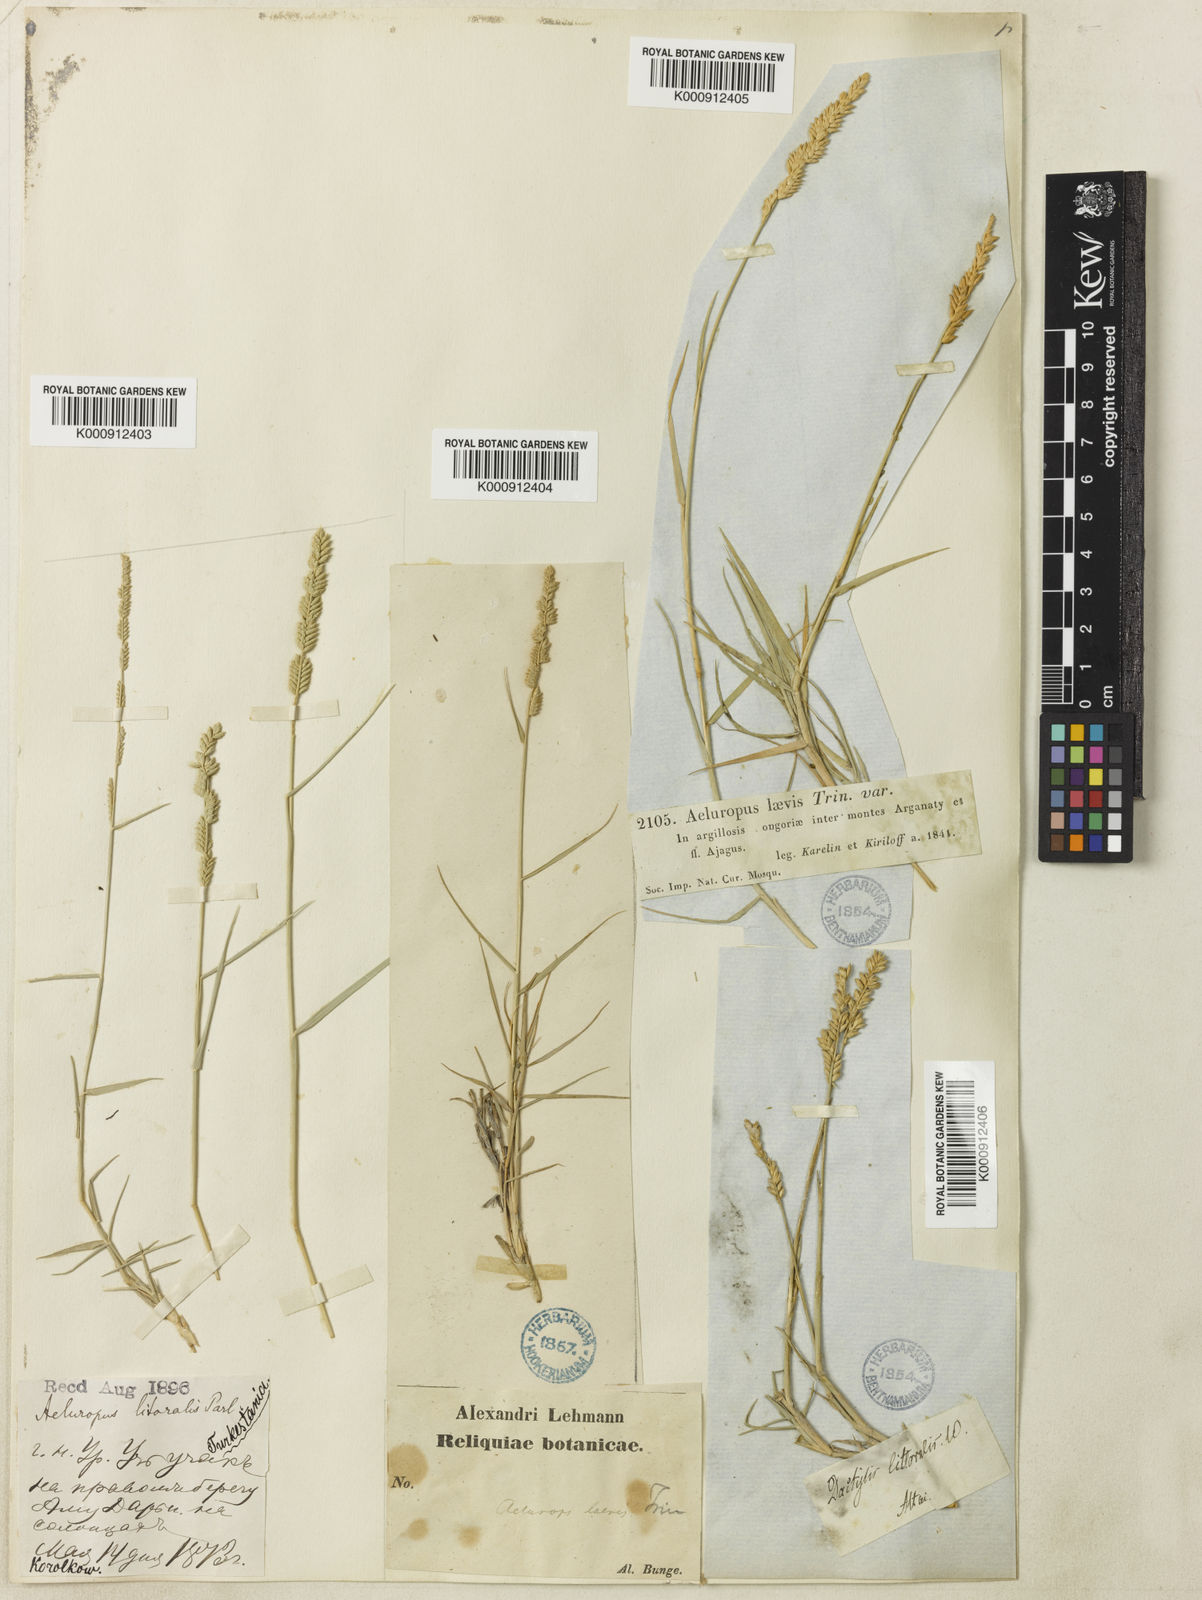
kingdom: Plantae
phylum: Tracheophyta
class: Liliopsida
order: Poales
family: Poaceae
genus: Aeluropus
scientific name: Aeluropus littoralis
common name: Indian walnut
